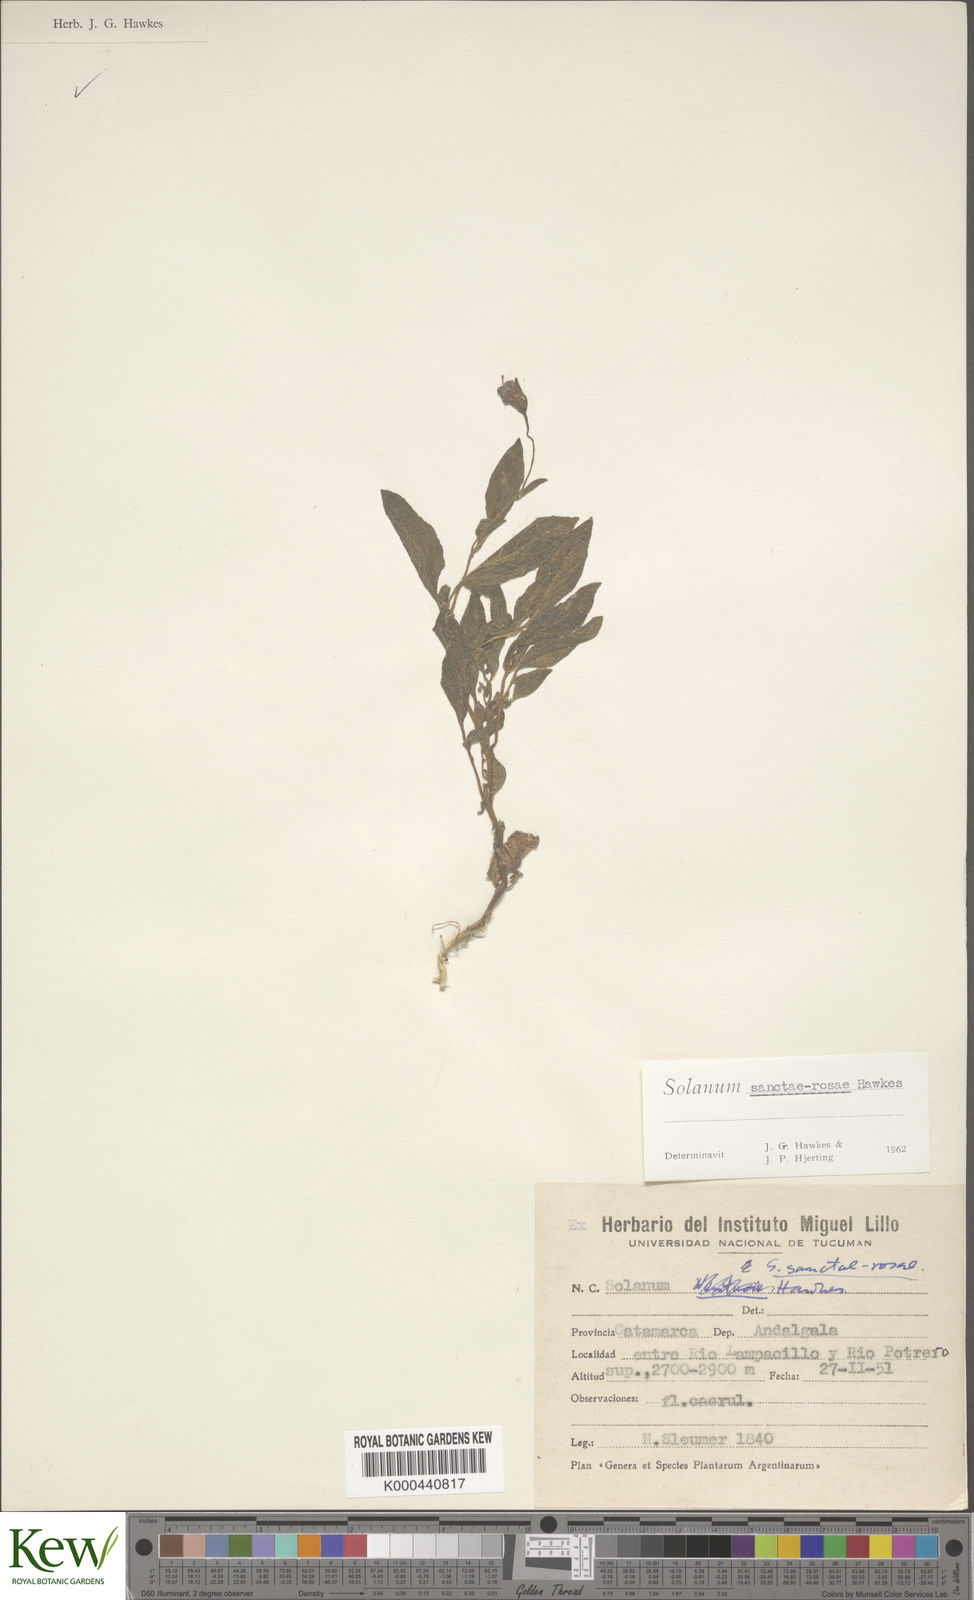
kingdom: Plantae
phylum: Tracheophyta
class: Magnoliopsida
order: Solanales
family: Solanaceae
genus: Solanum
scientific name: Solanum boliviense
